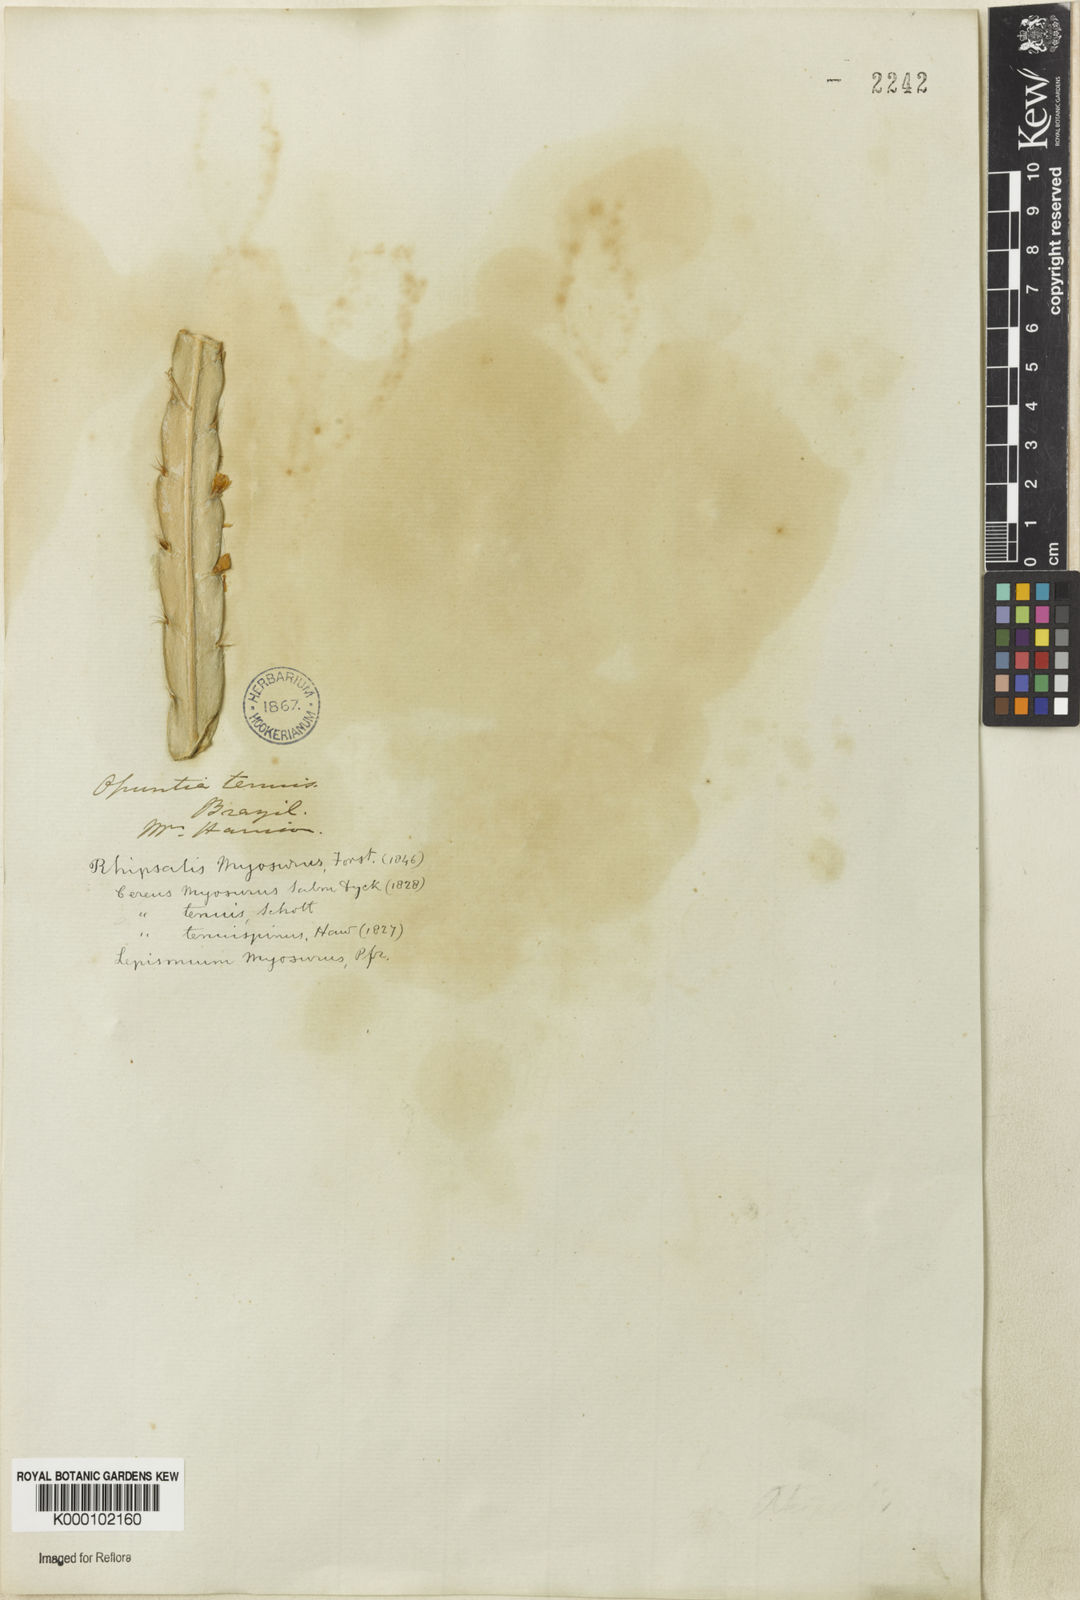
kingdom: Plantae
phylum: Tracheophyta
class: Magnoliopsida
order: Caryophyllales
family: Cactaceae
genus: Lepismium
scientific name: Lepismium cruciforme
